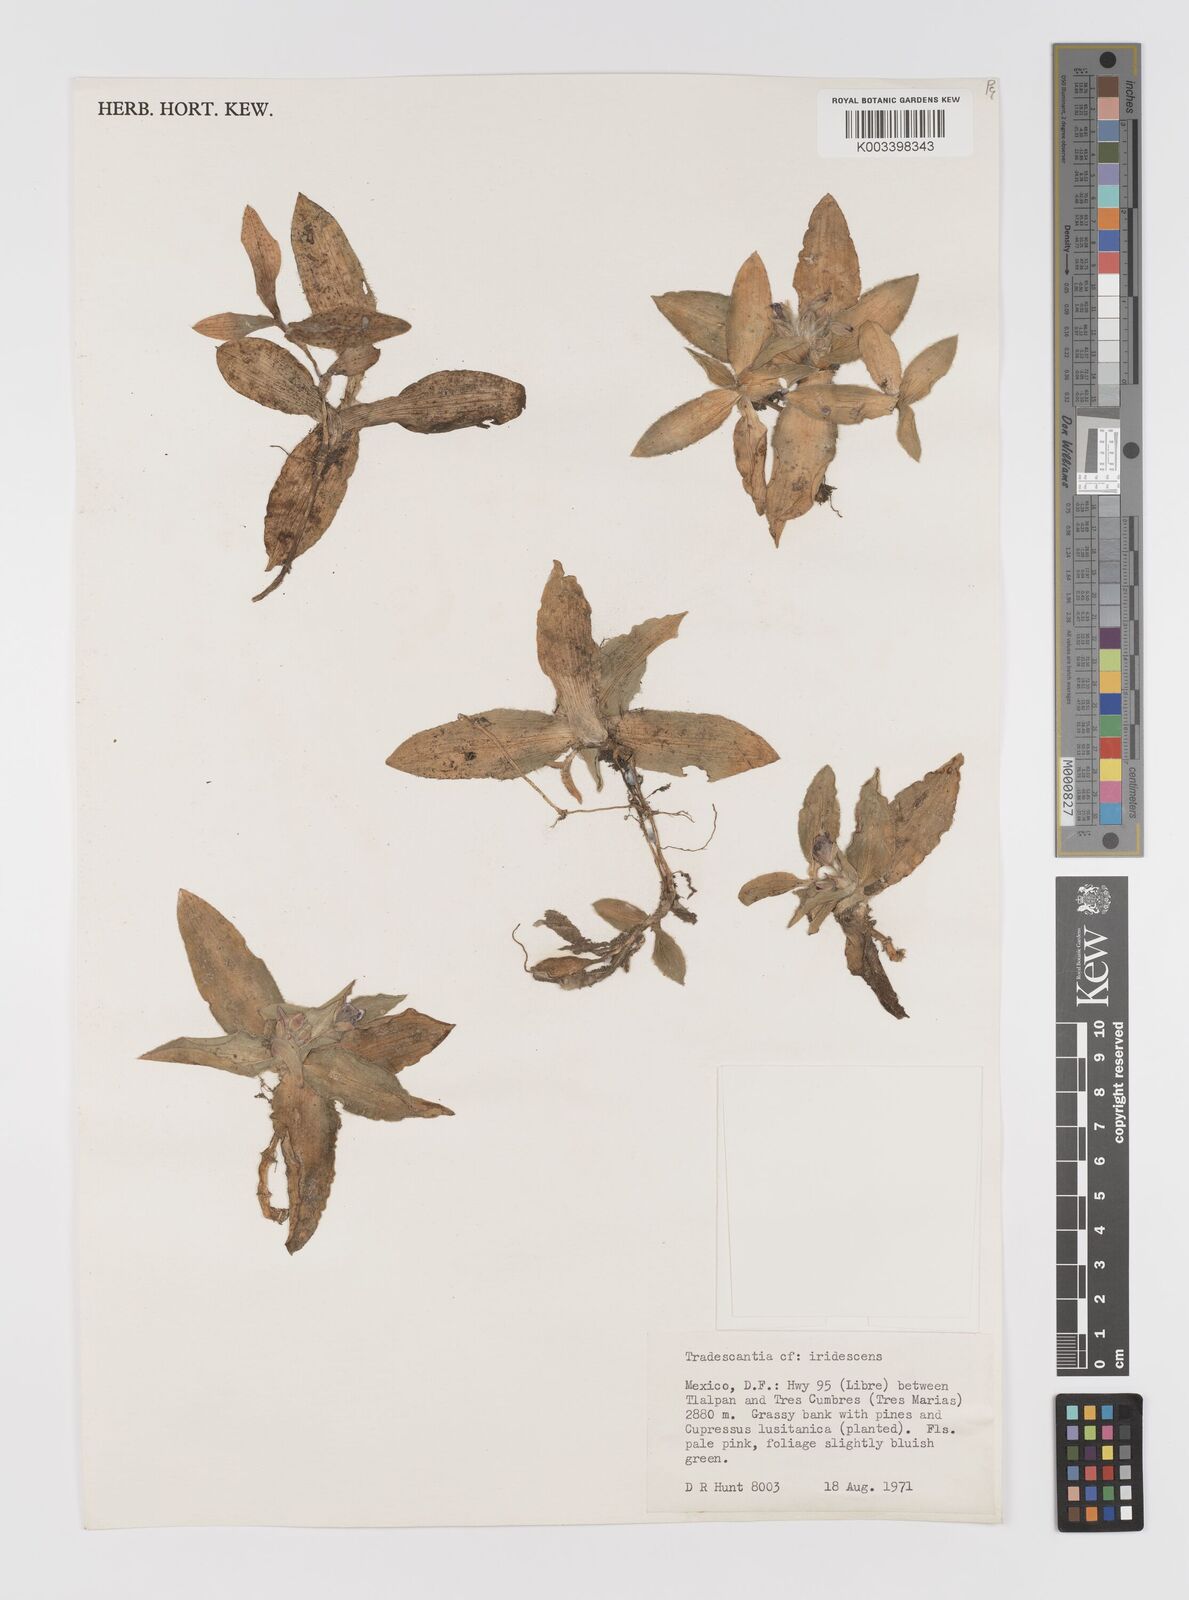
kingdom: Plantae
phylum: Tracheophyta
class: Liliopsida
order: Commelinales
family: Commelinaceae
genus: Tradescantia
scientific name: Tradescantia crassifolia
